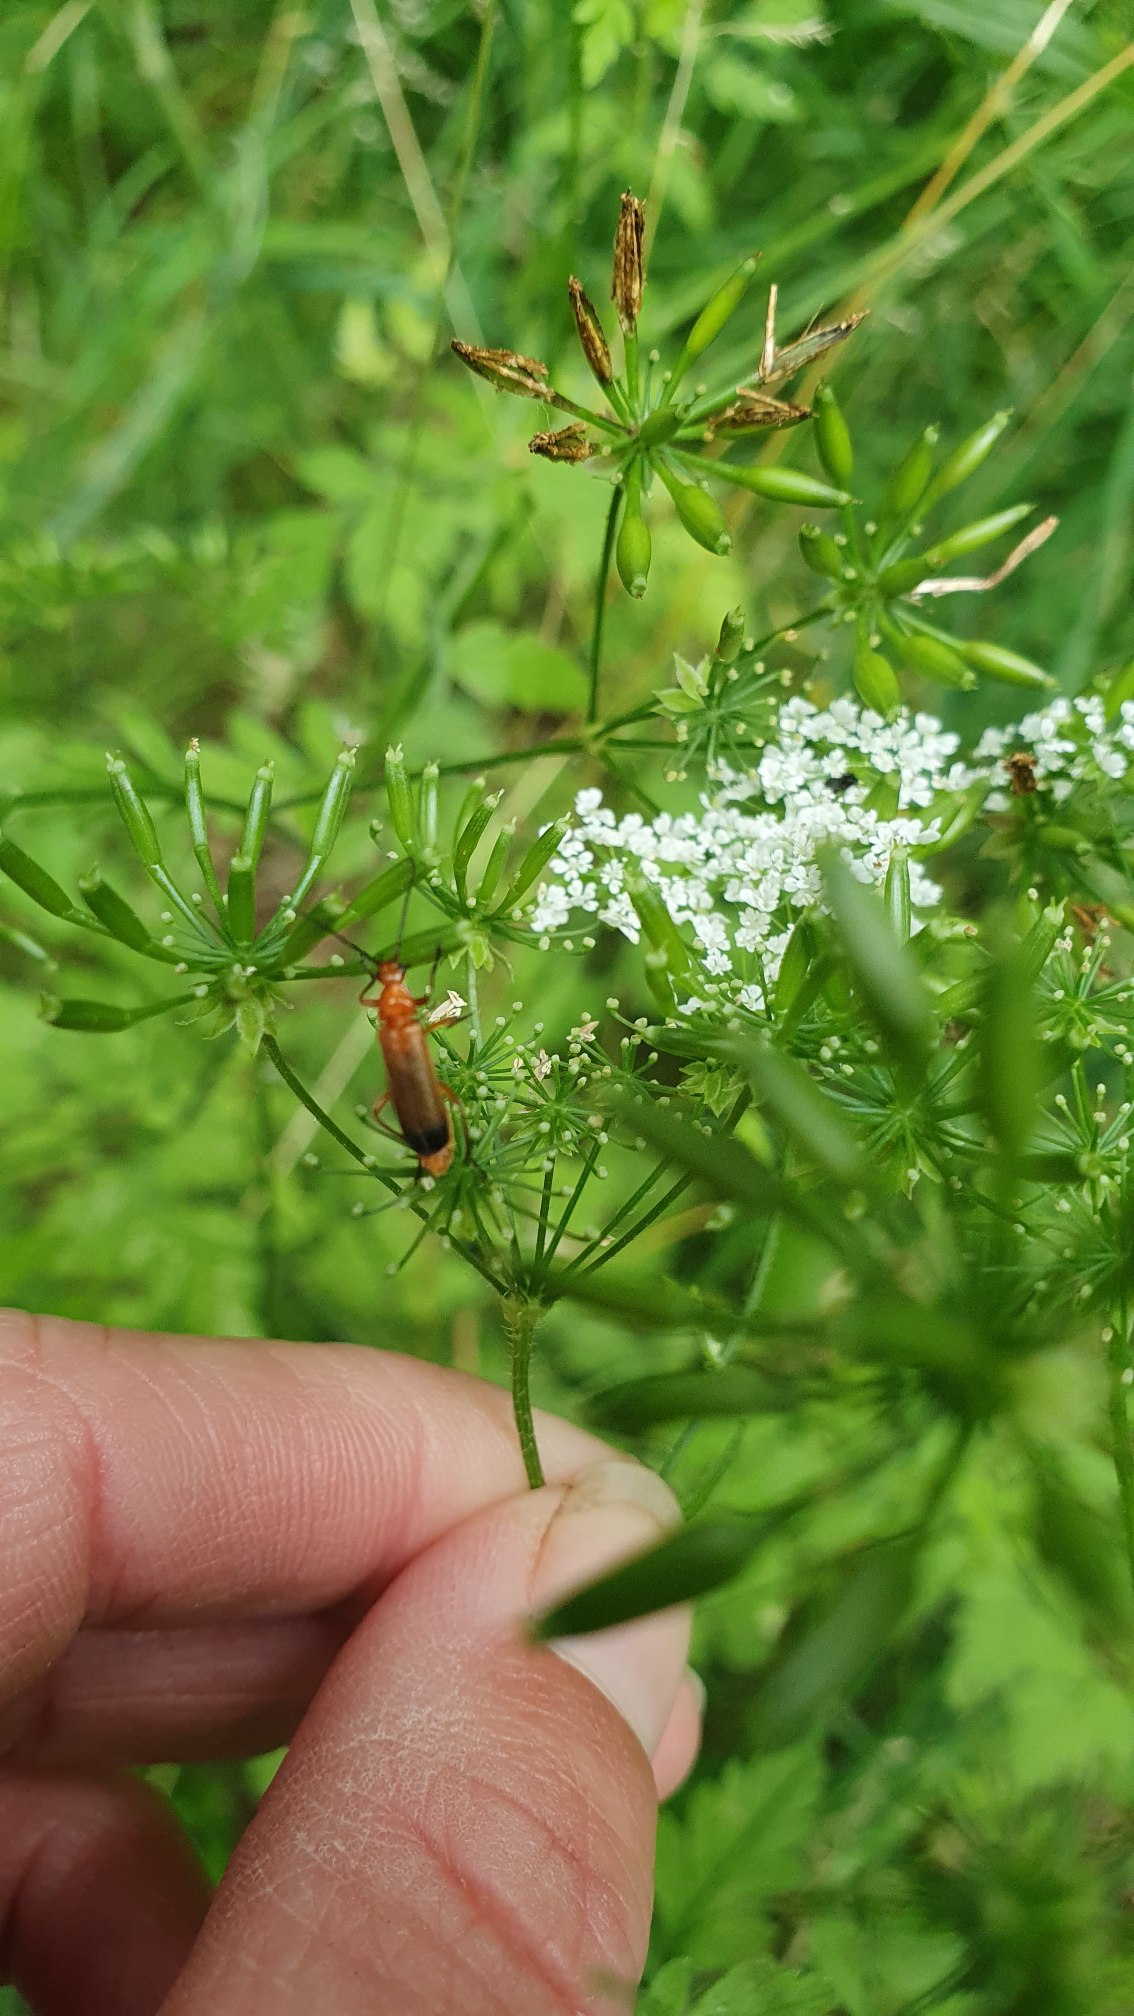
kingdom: Animalia
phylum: Arthropoda
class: Insecta
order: Coleoptera
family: Cantharidae
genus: Rhagonycha
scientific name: Rhagonycha fulva
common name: Præstebille
